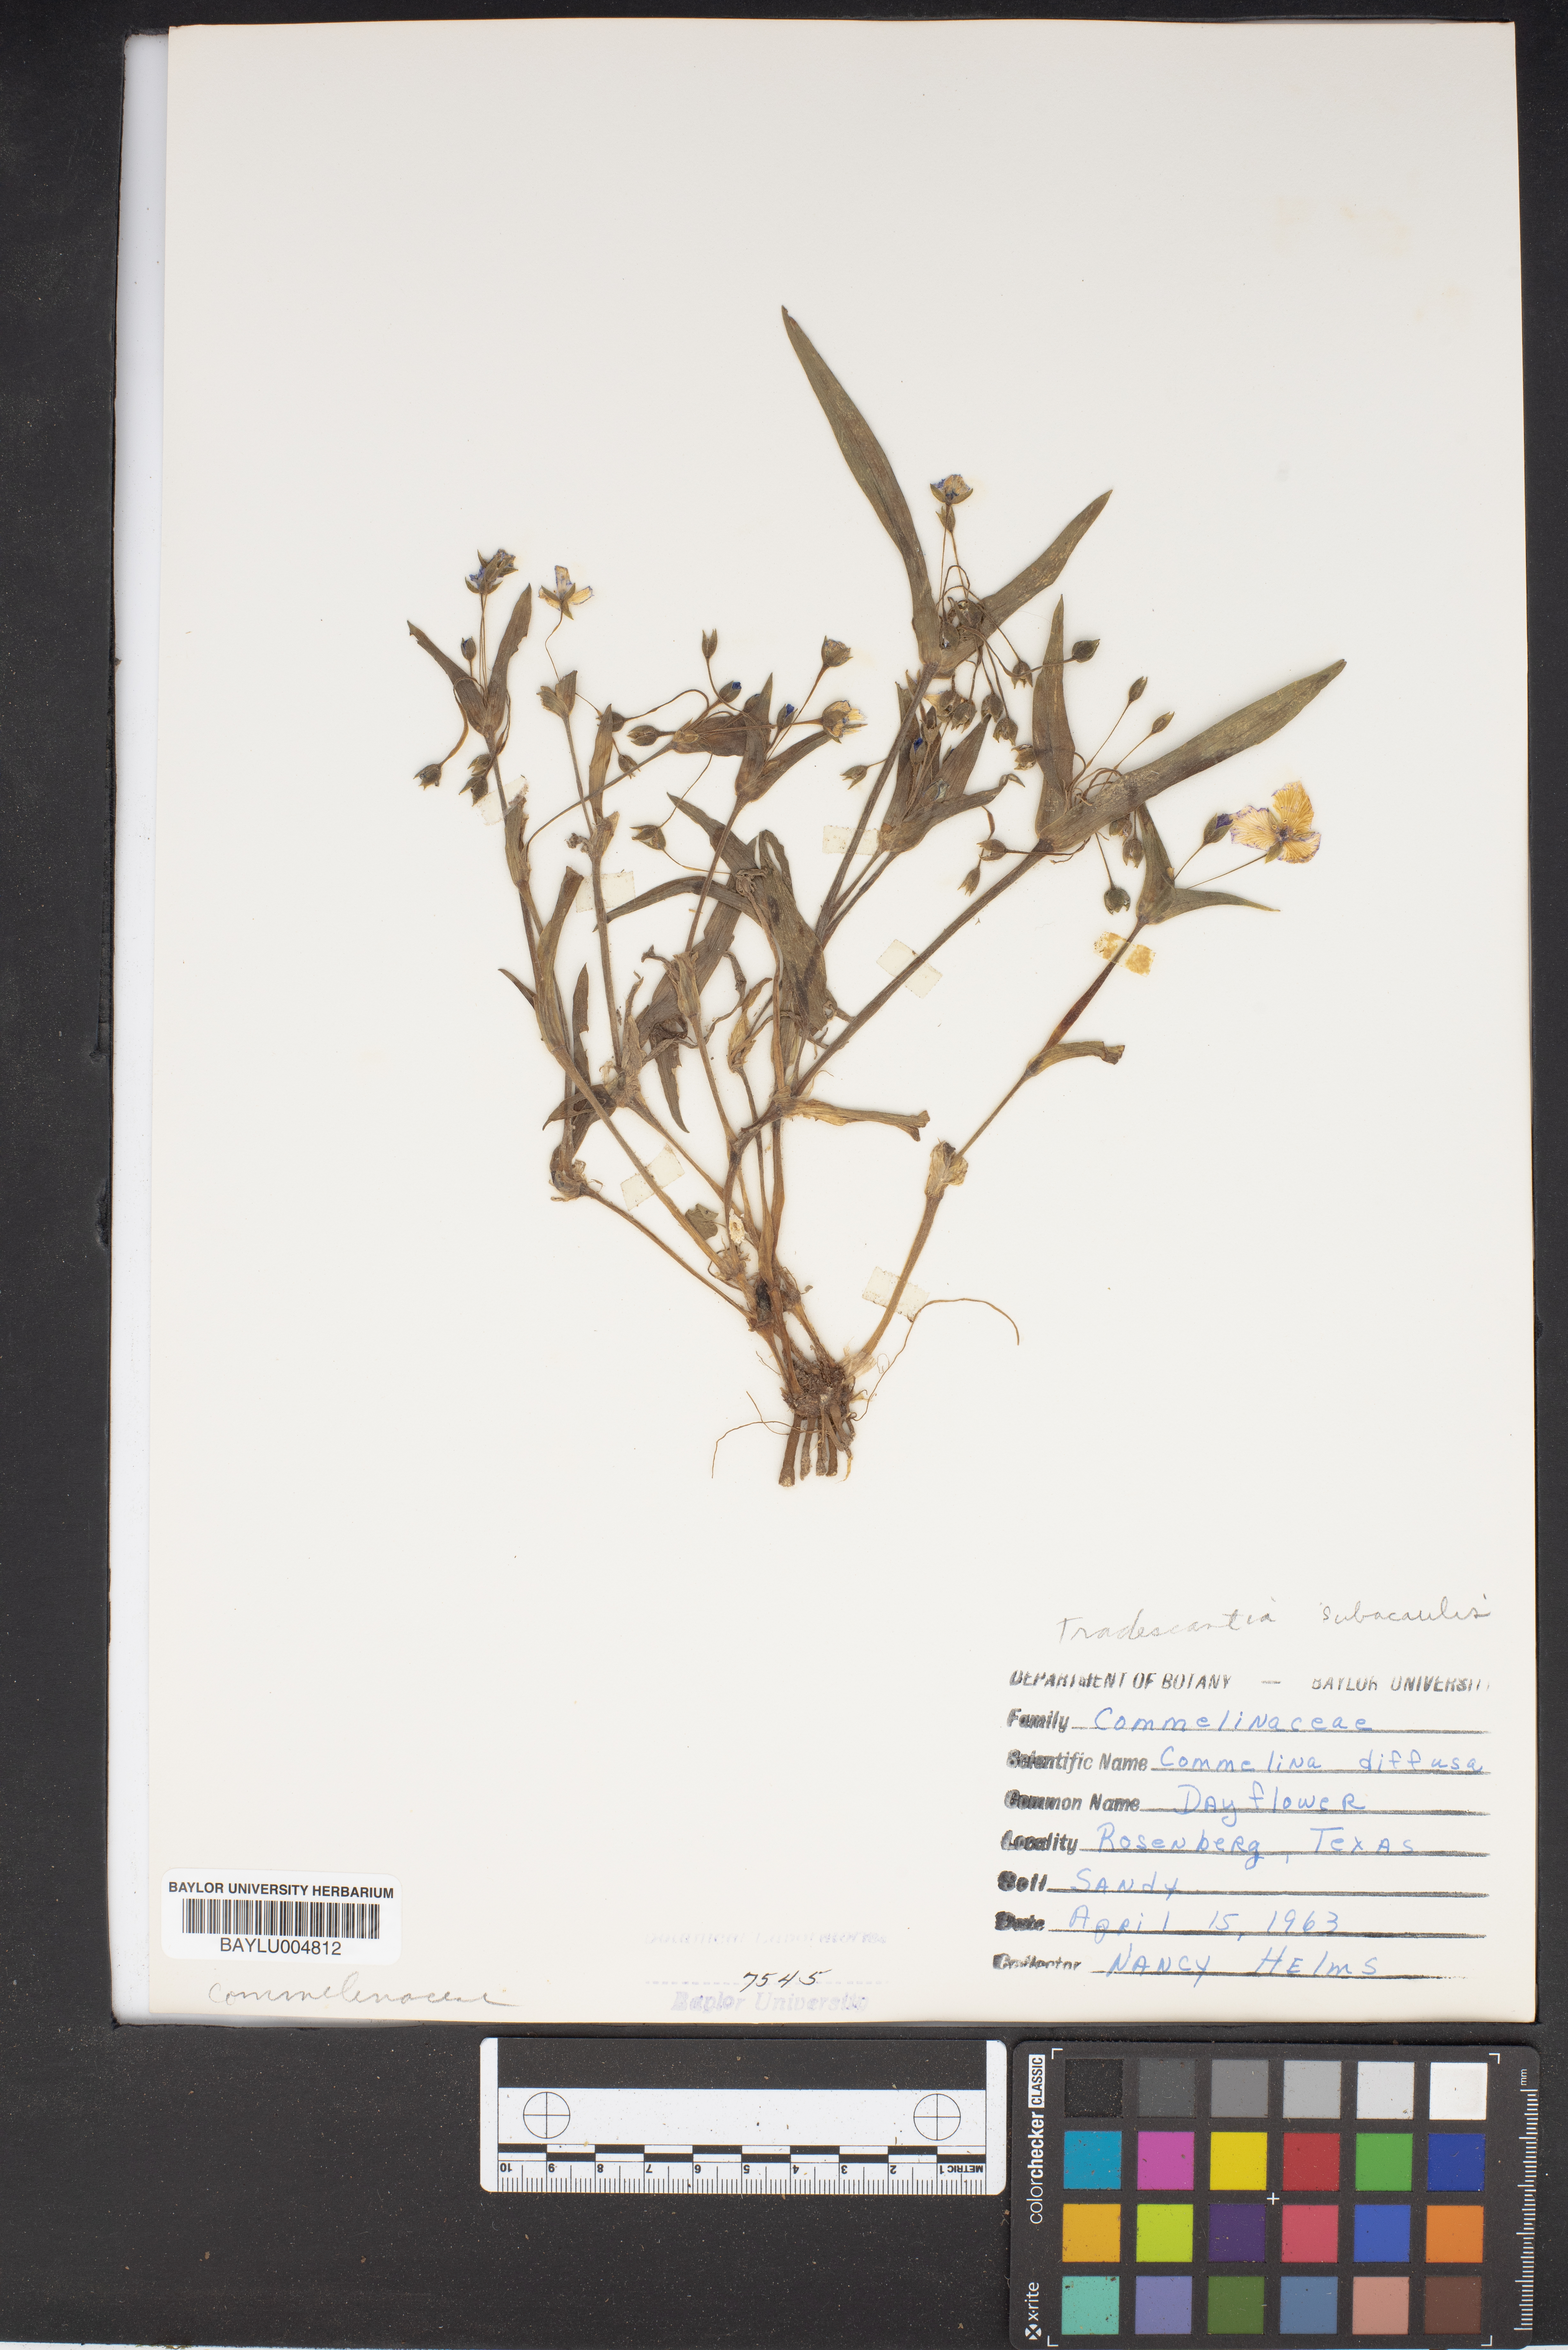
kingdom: Plantae
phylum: Tracheophyta
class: Liliopsida
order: Commelinales
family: Commelinaceae
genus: Commelina
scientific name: Commelina diffusa
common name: Climbing dayflower
